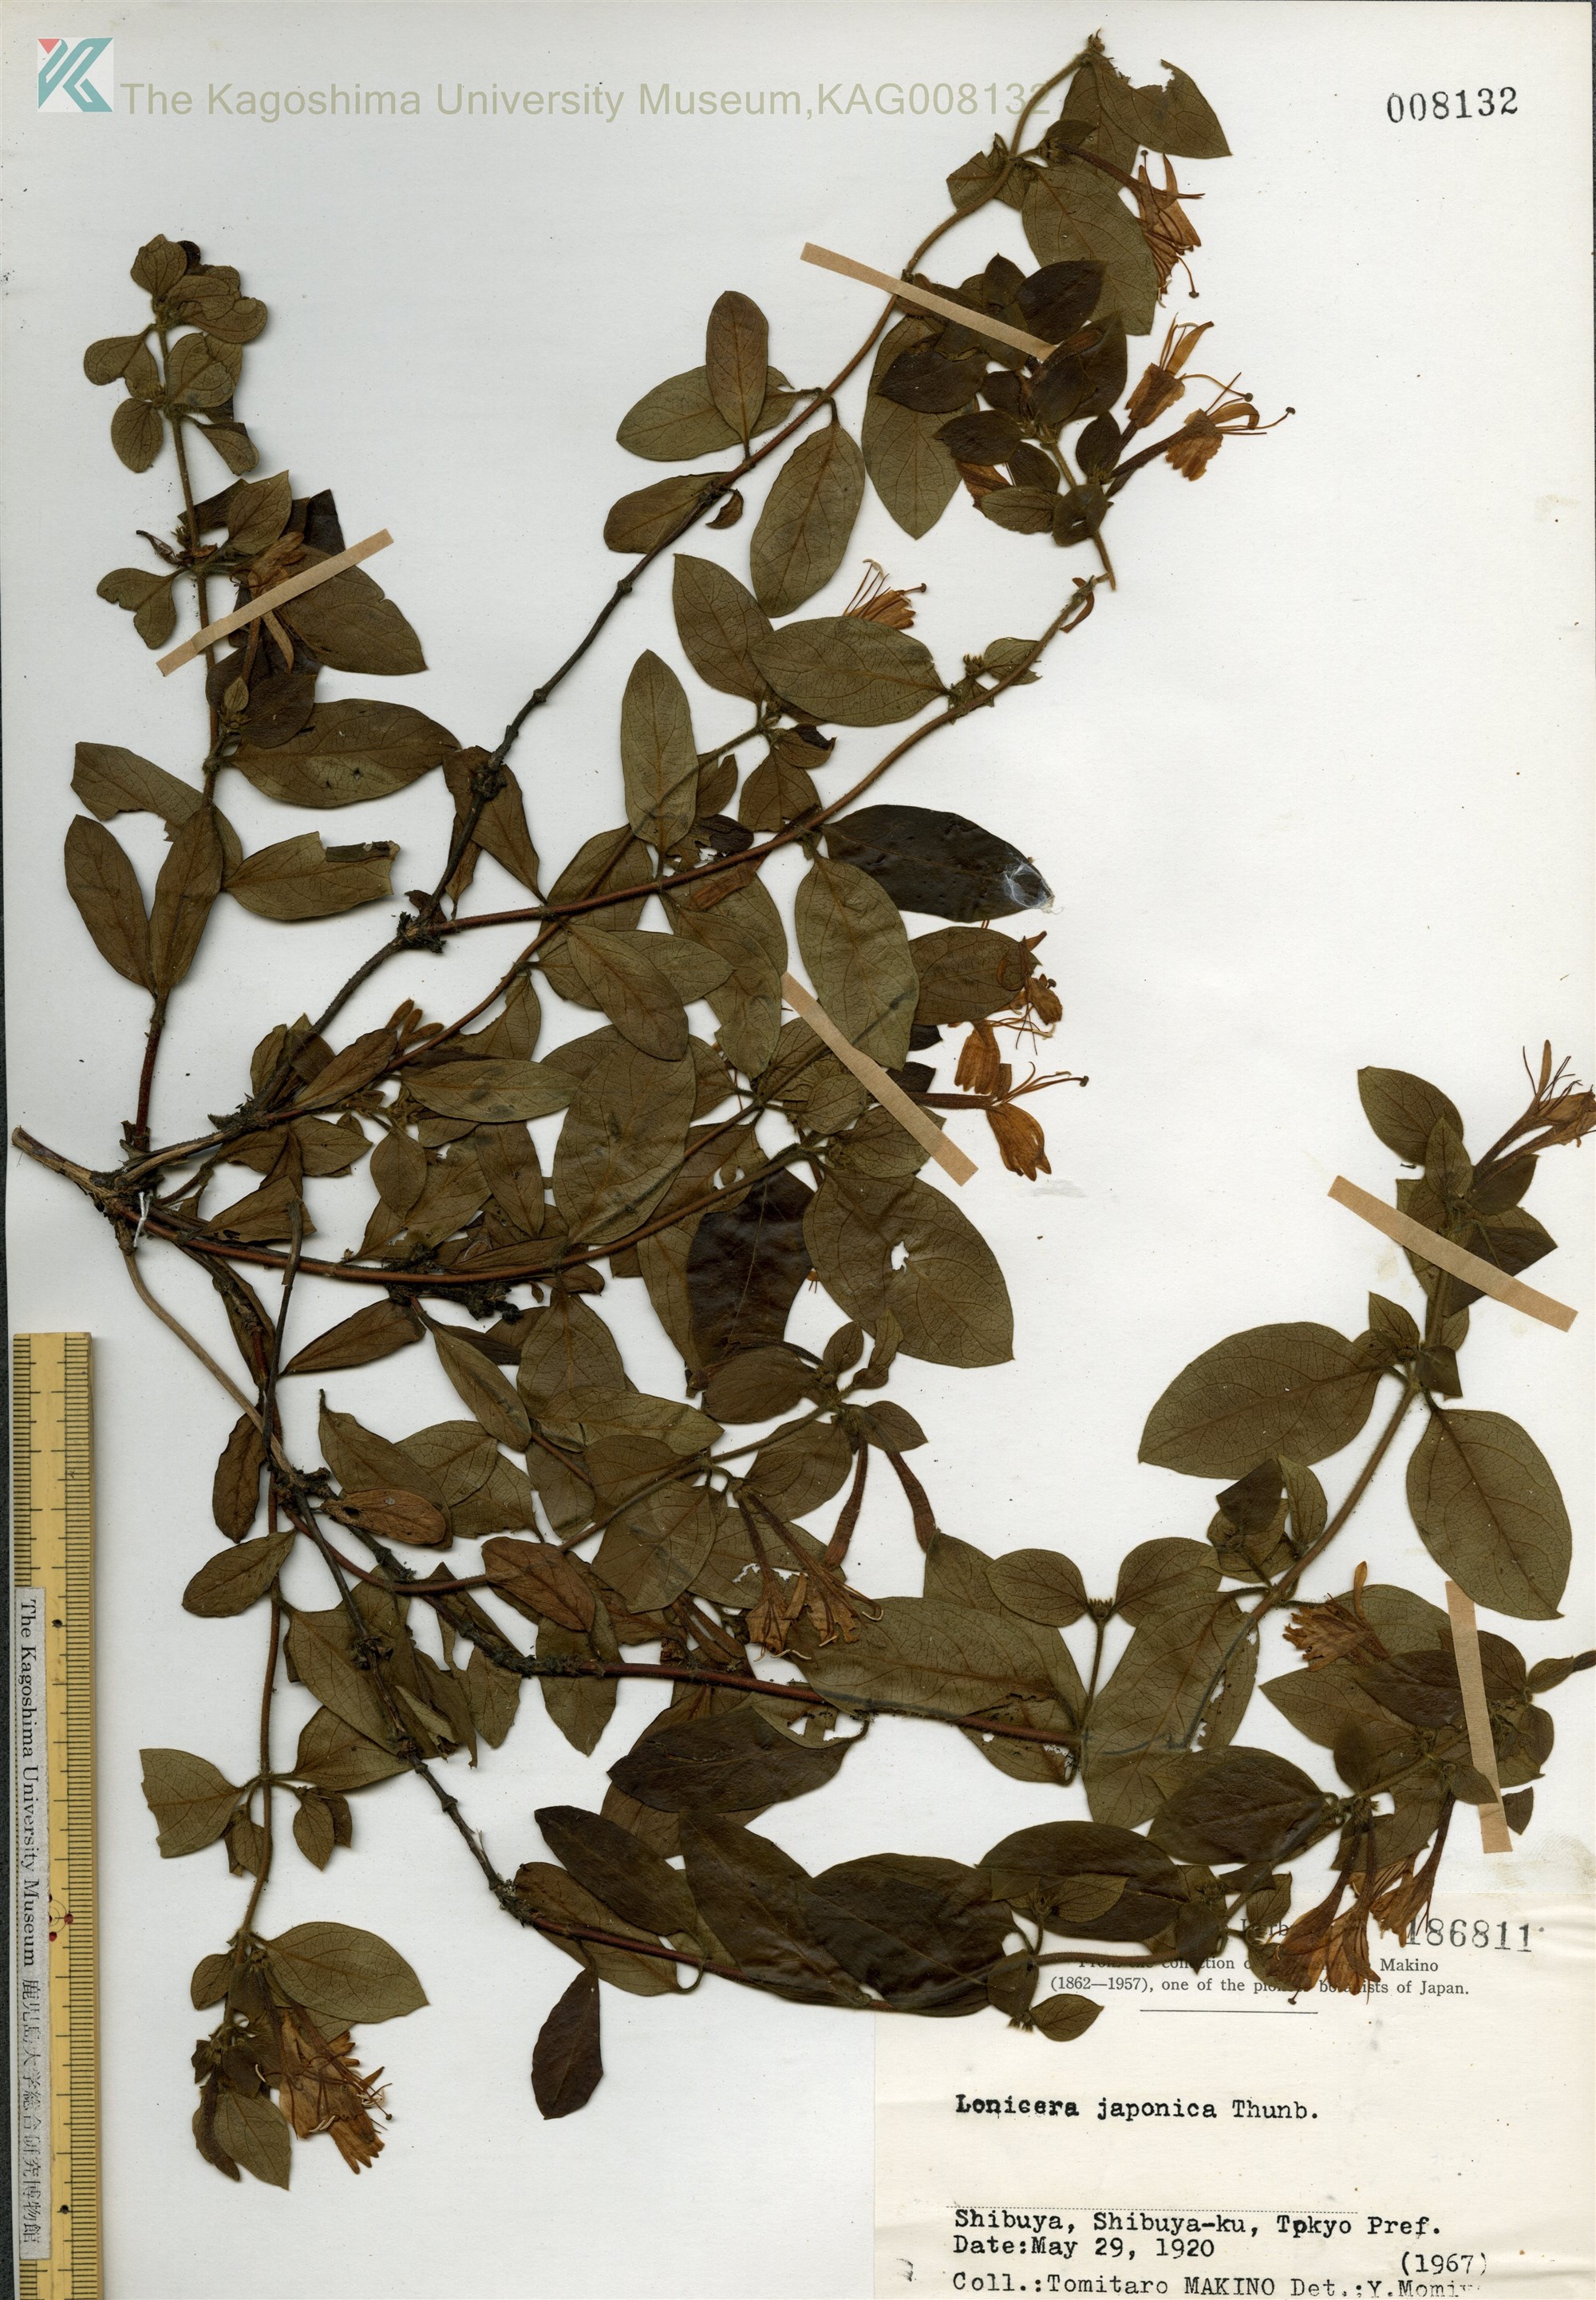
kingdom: Plantae
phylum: Tracheophyta
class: Magnoliopsida
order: Dipsacales
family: Caprifoliaceae
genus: Lonicera
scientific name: Lonicera japonica
